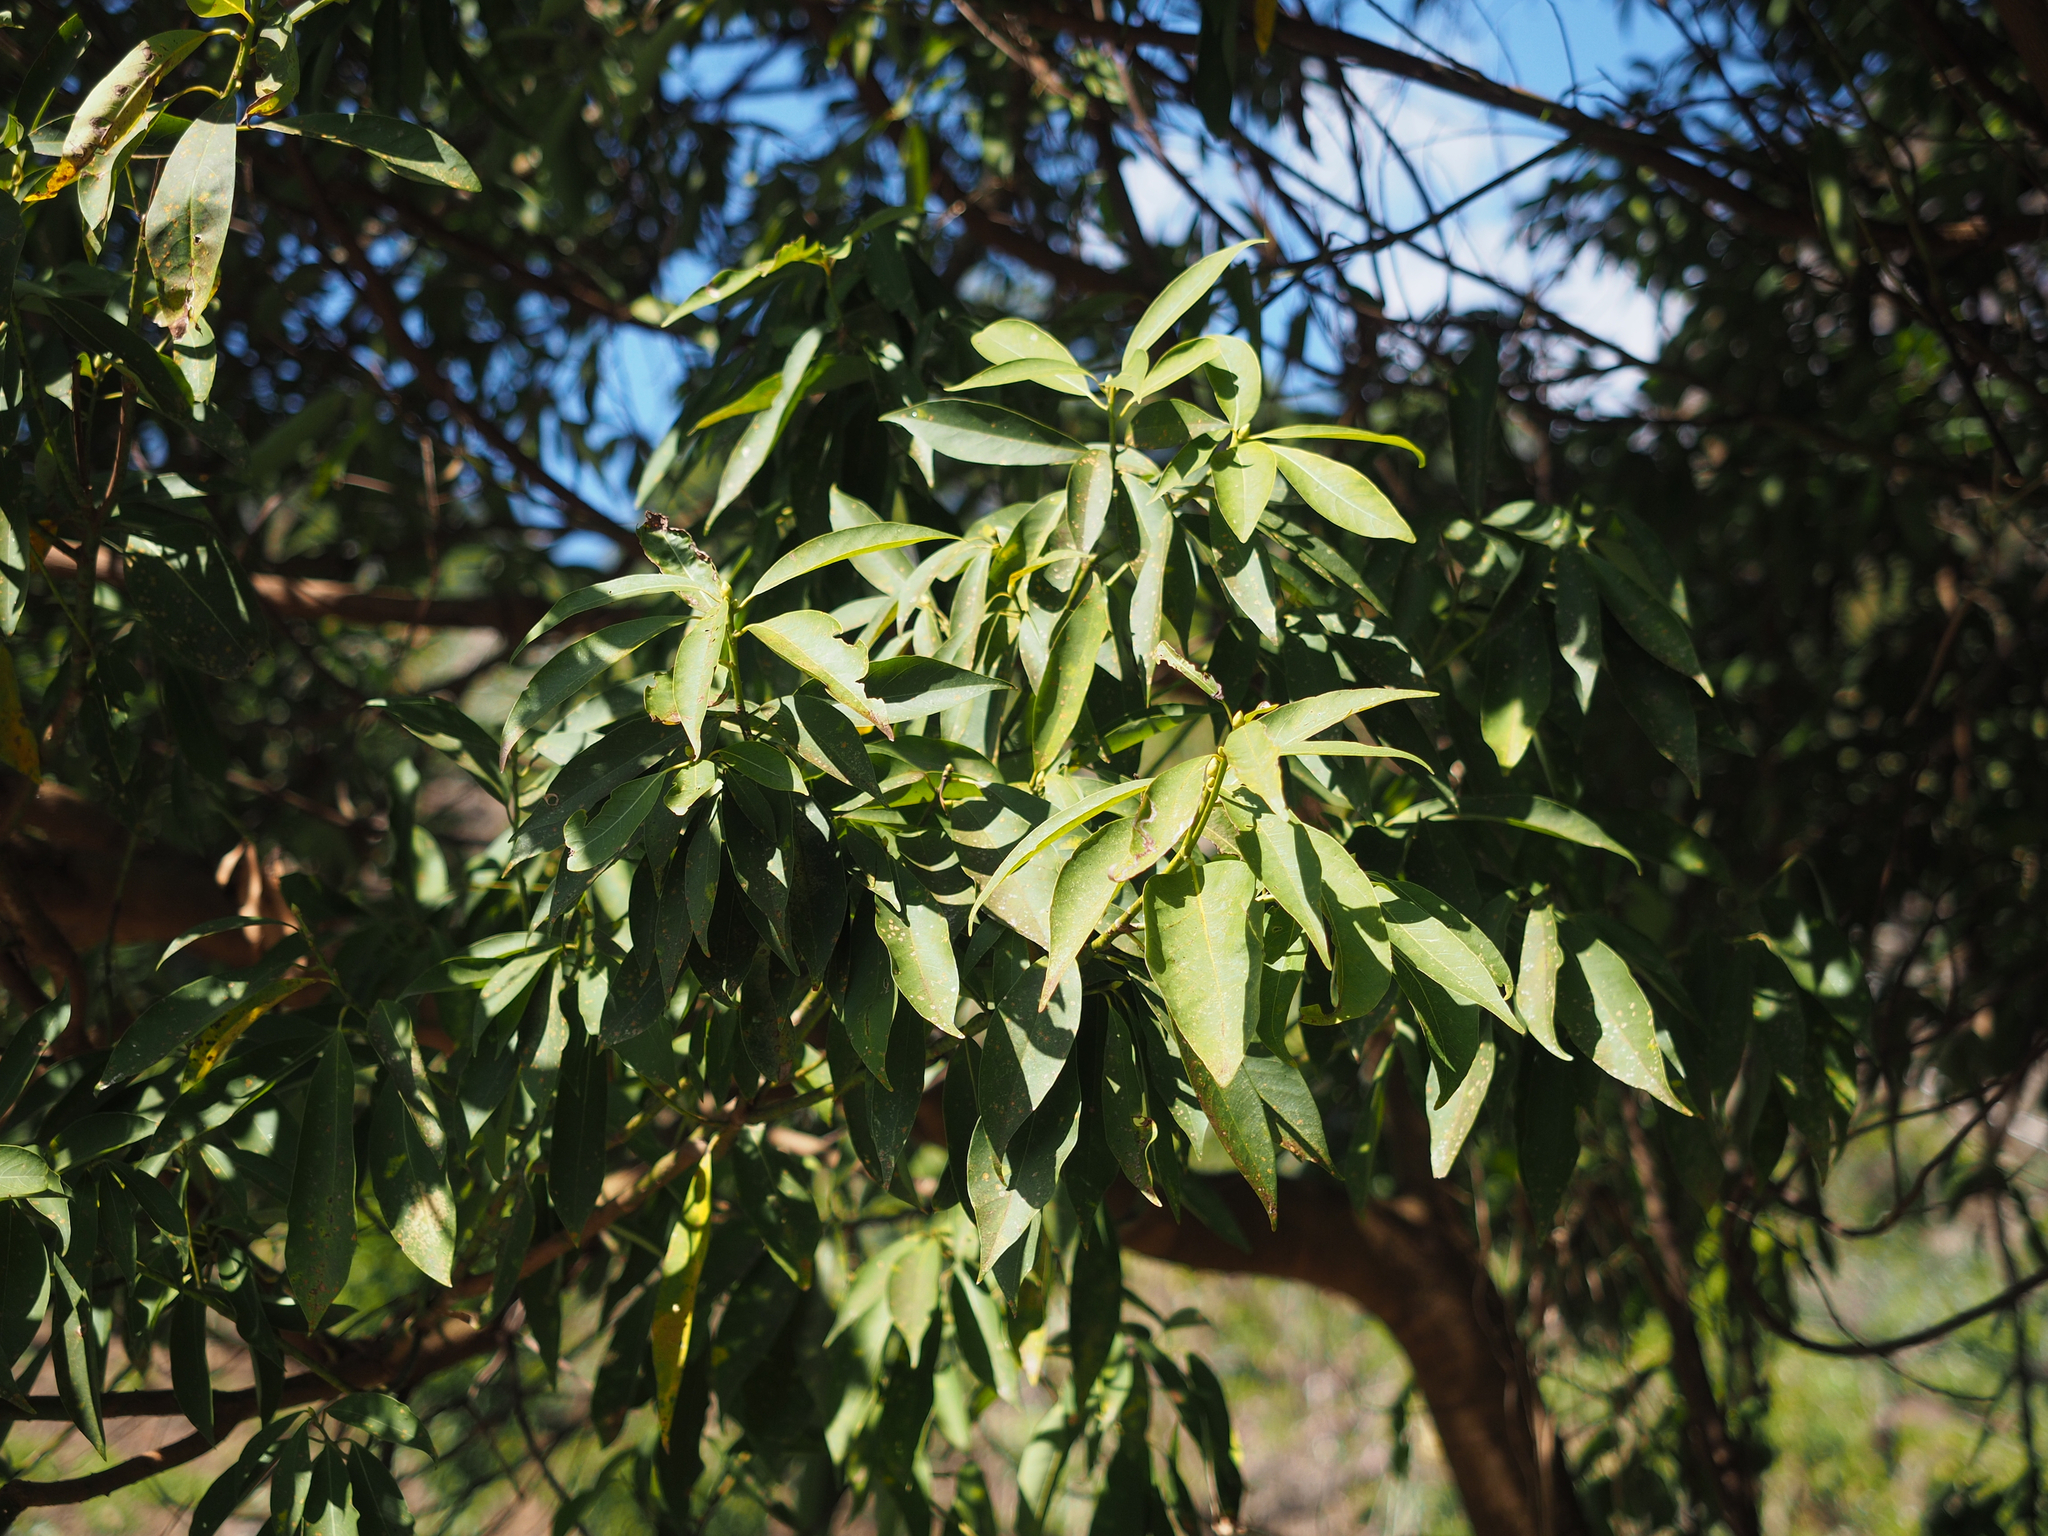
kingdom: Plantae
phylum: Tracheophyta
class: Magnoliopsida
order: Laurales
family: Lauraceae
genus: Machilus
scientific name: Machilus zuihoensis
